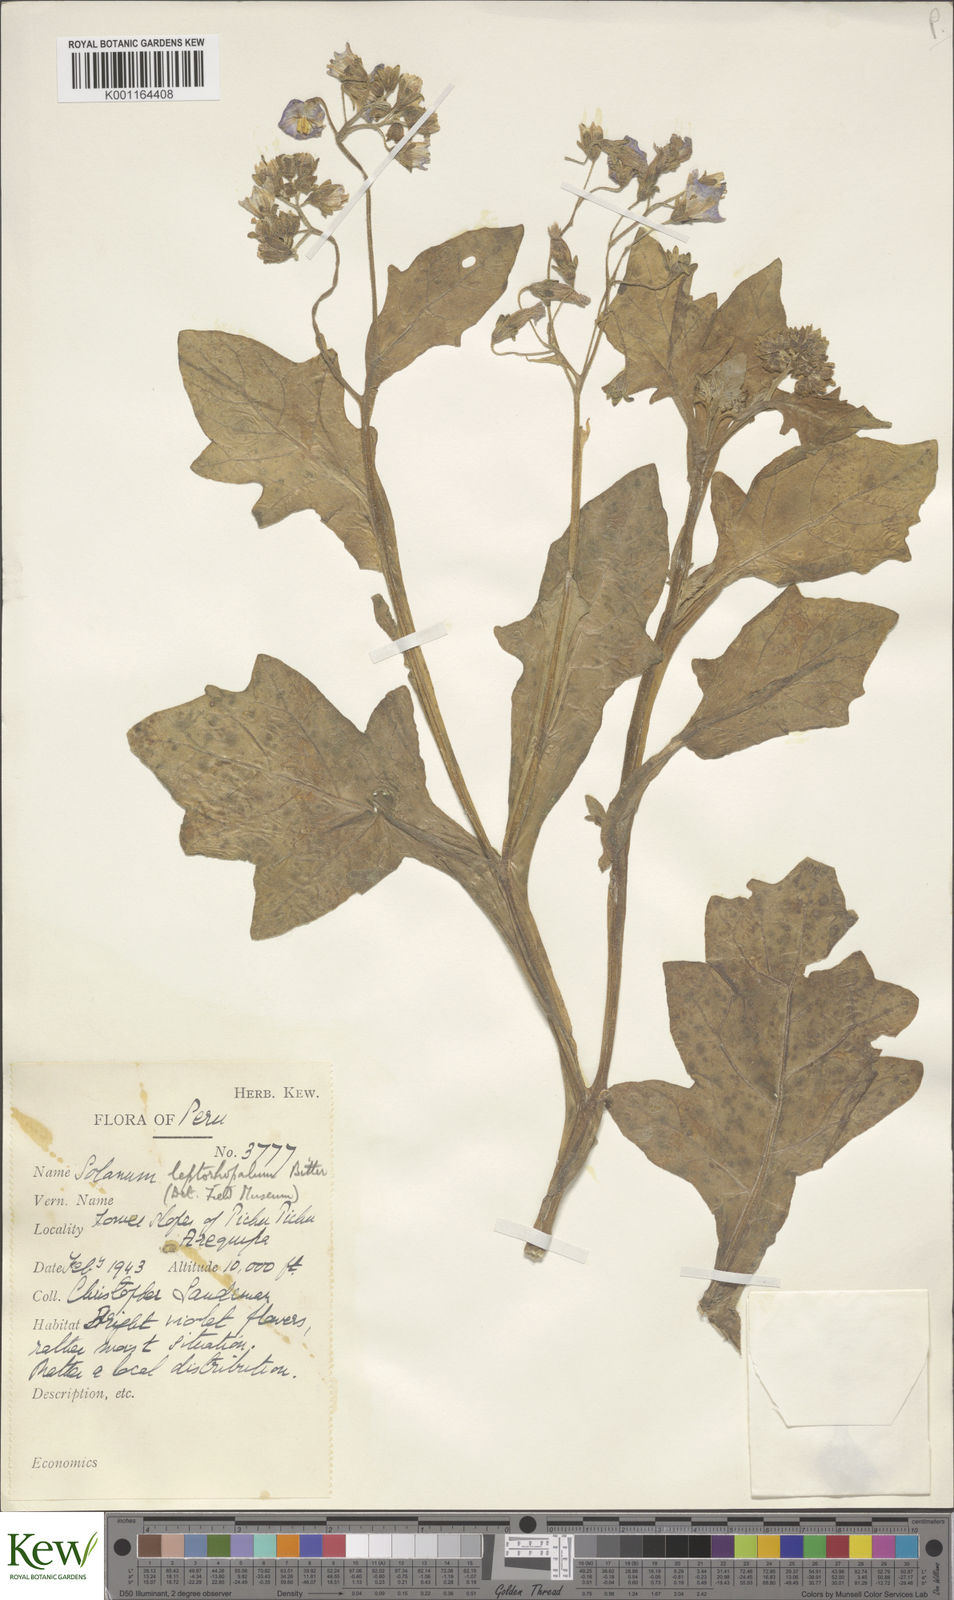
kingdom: Plantae
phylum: Tracheophyta
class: Magnoliopsida
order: Solanales
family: Solanaceae
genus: Solanum
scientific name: Solanum
